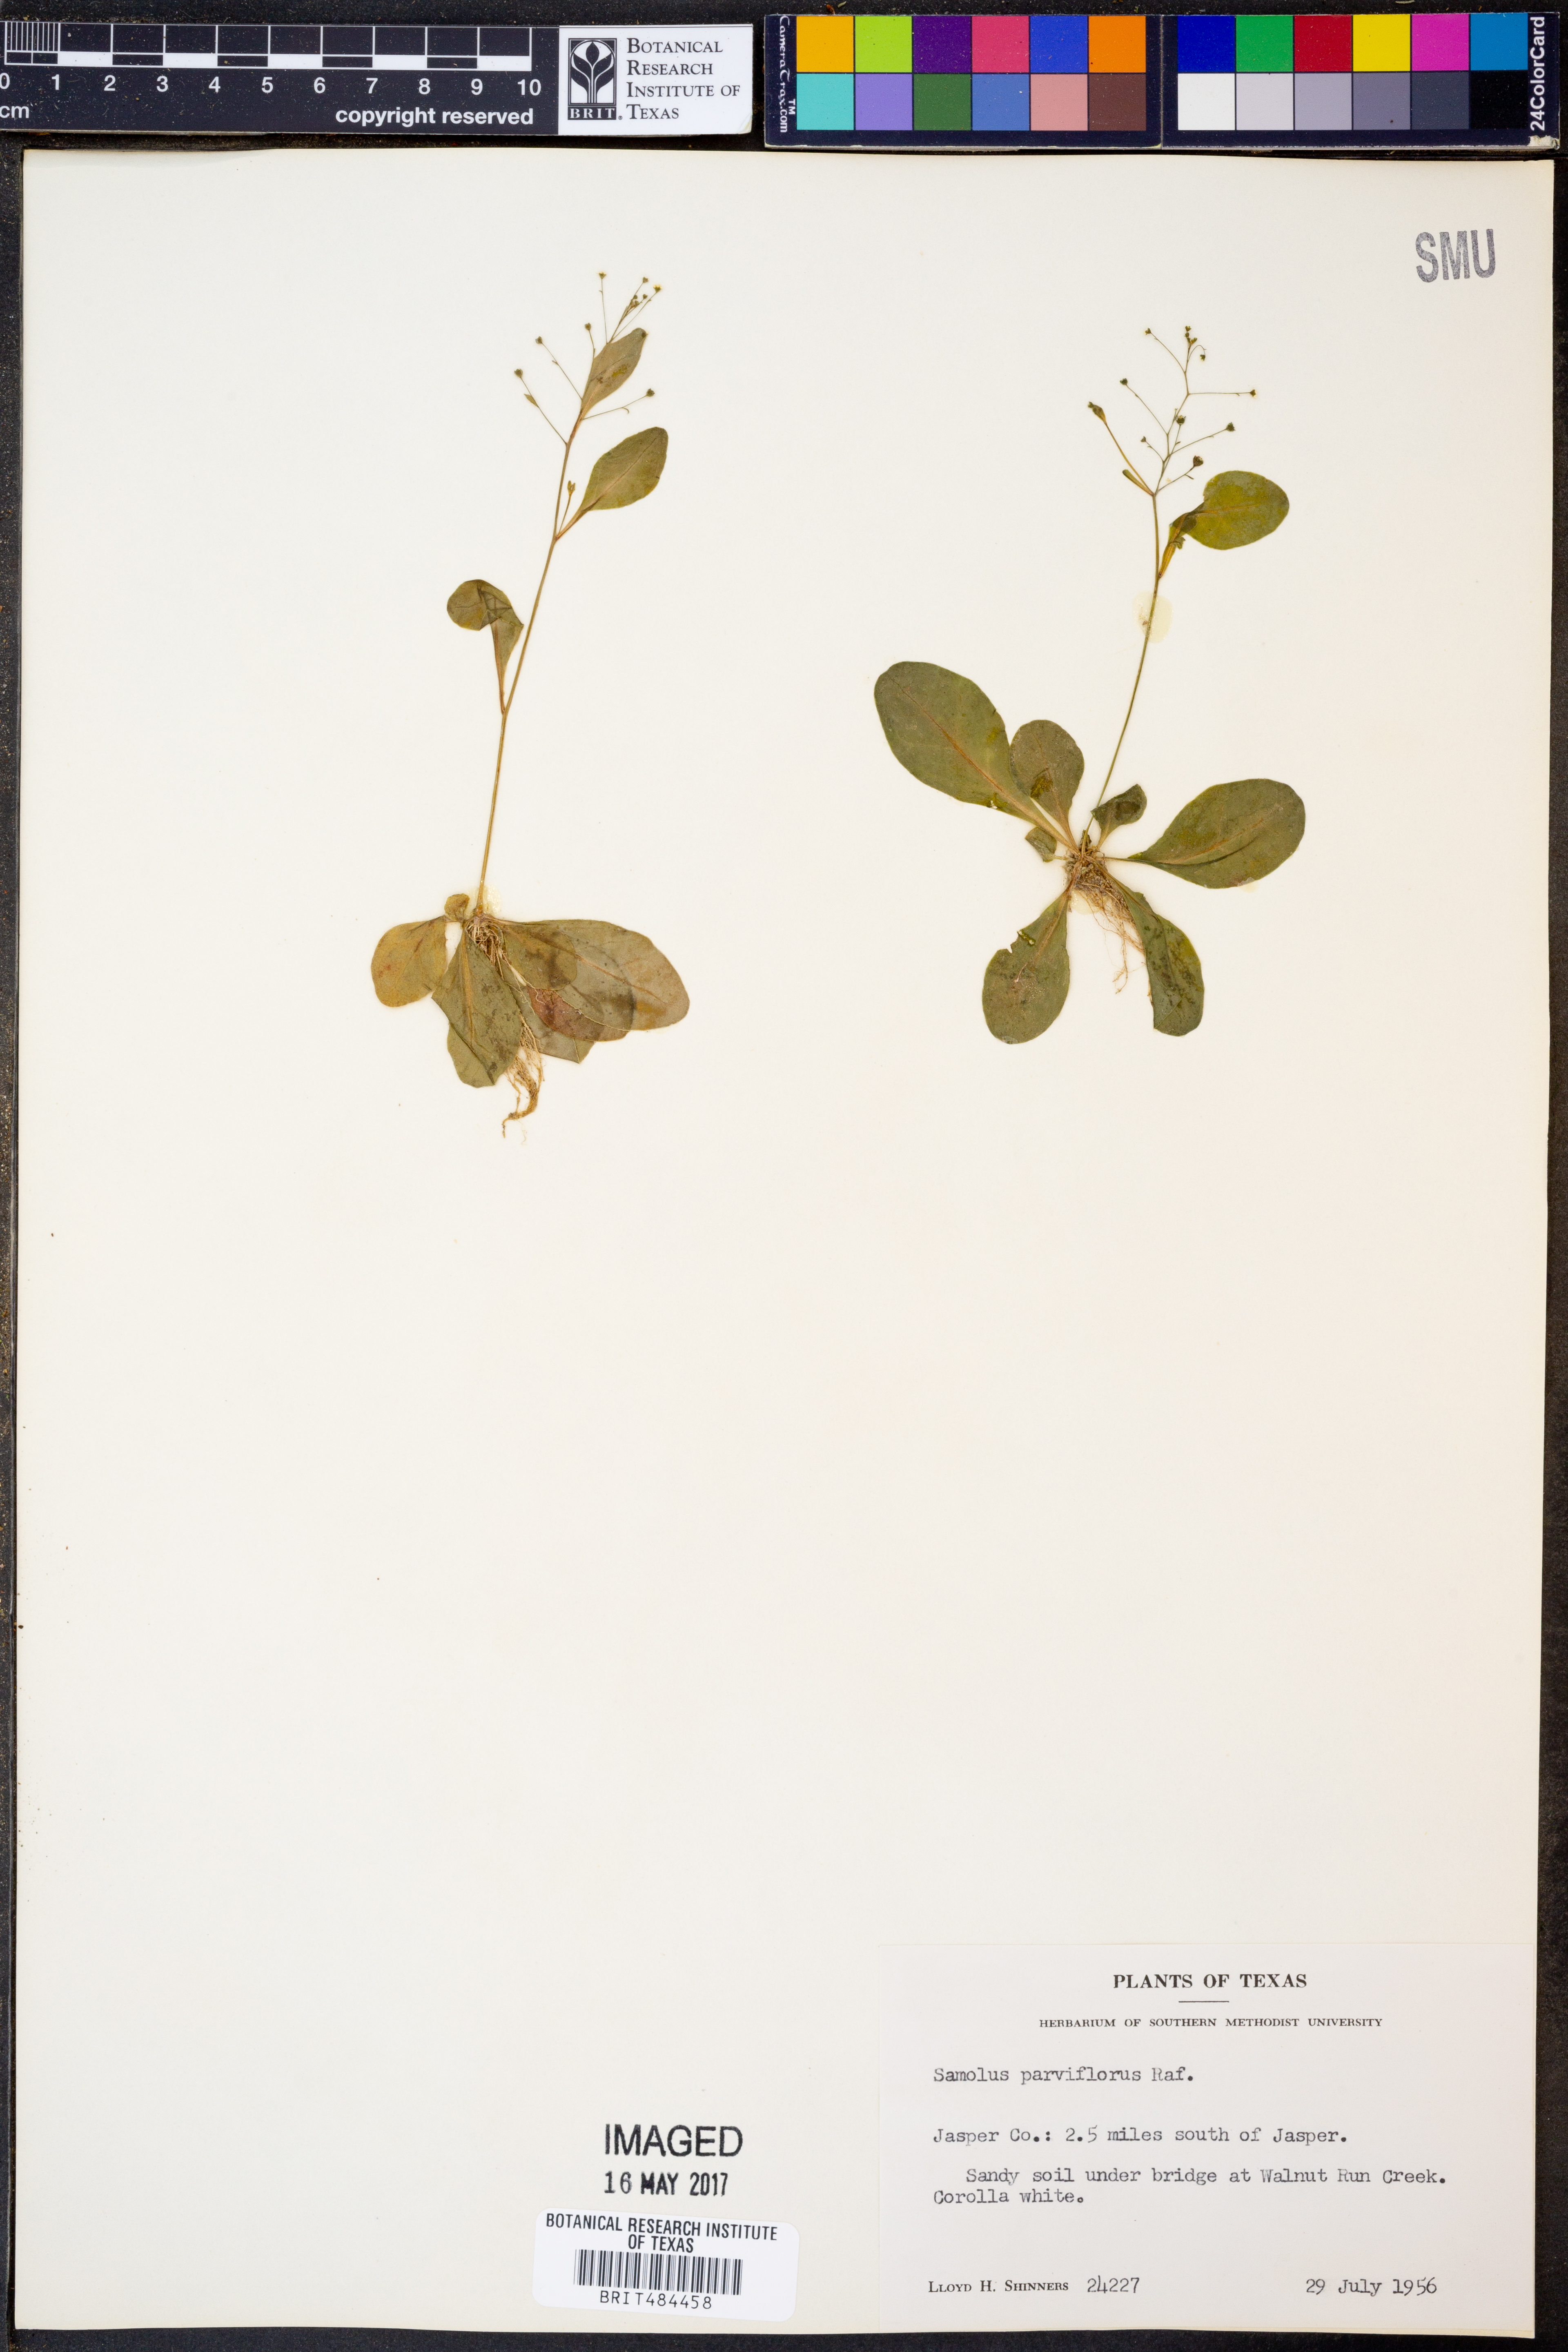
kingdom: Plantae
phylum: Tracheophyta
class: Magnoliopsida
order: Ericales
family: Primulaceae
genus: Samolus
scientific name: Samolus parviflorus
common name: False water pimpernel
